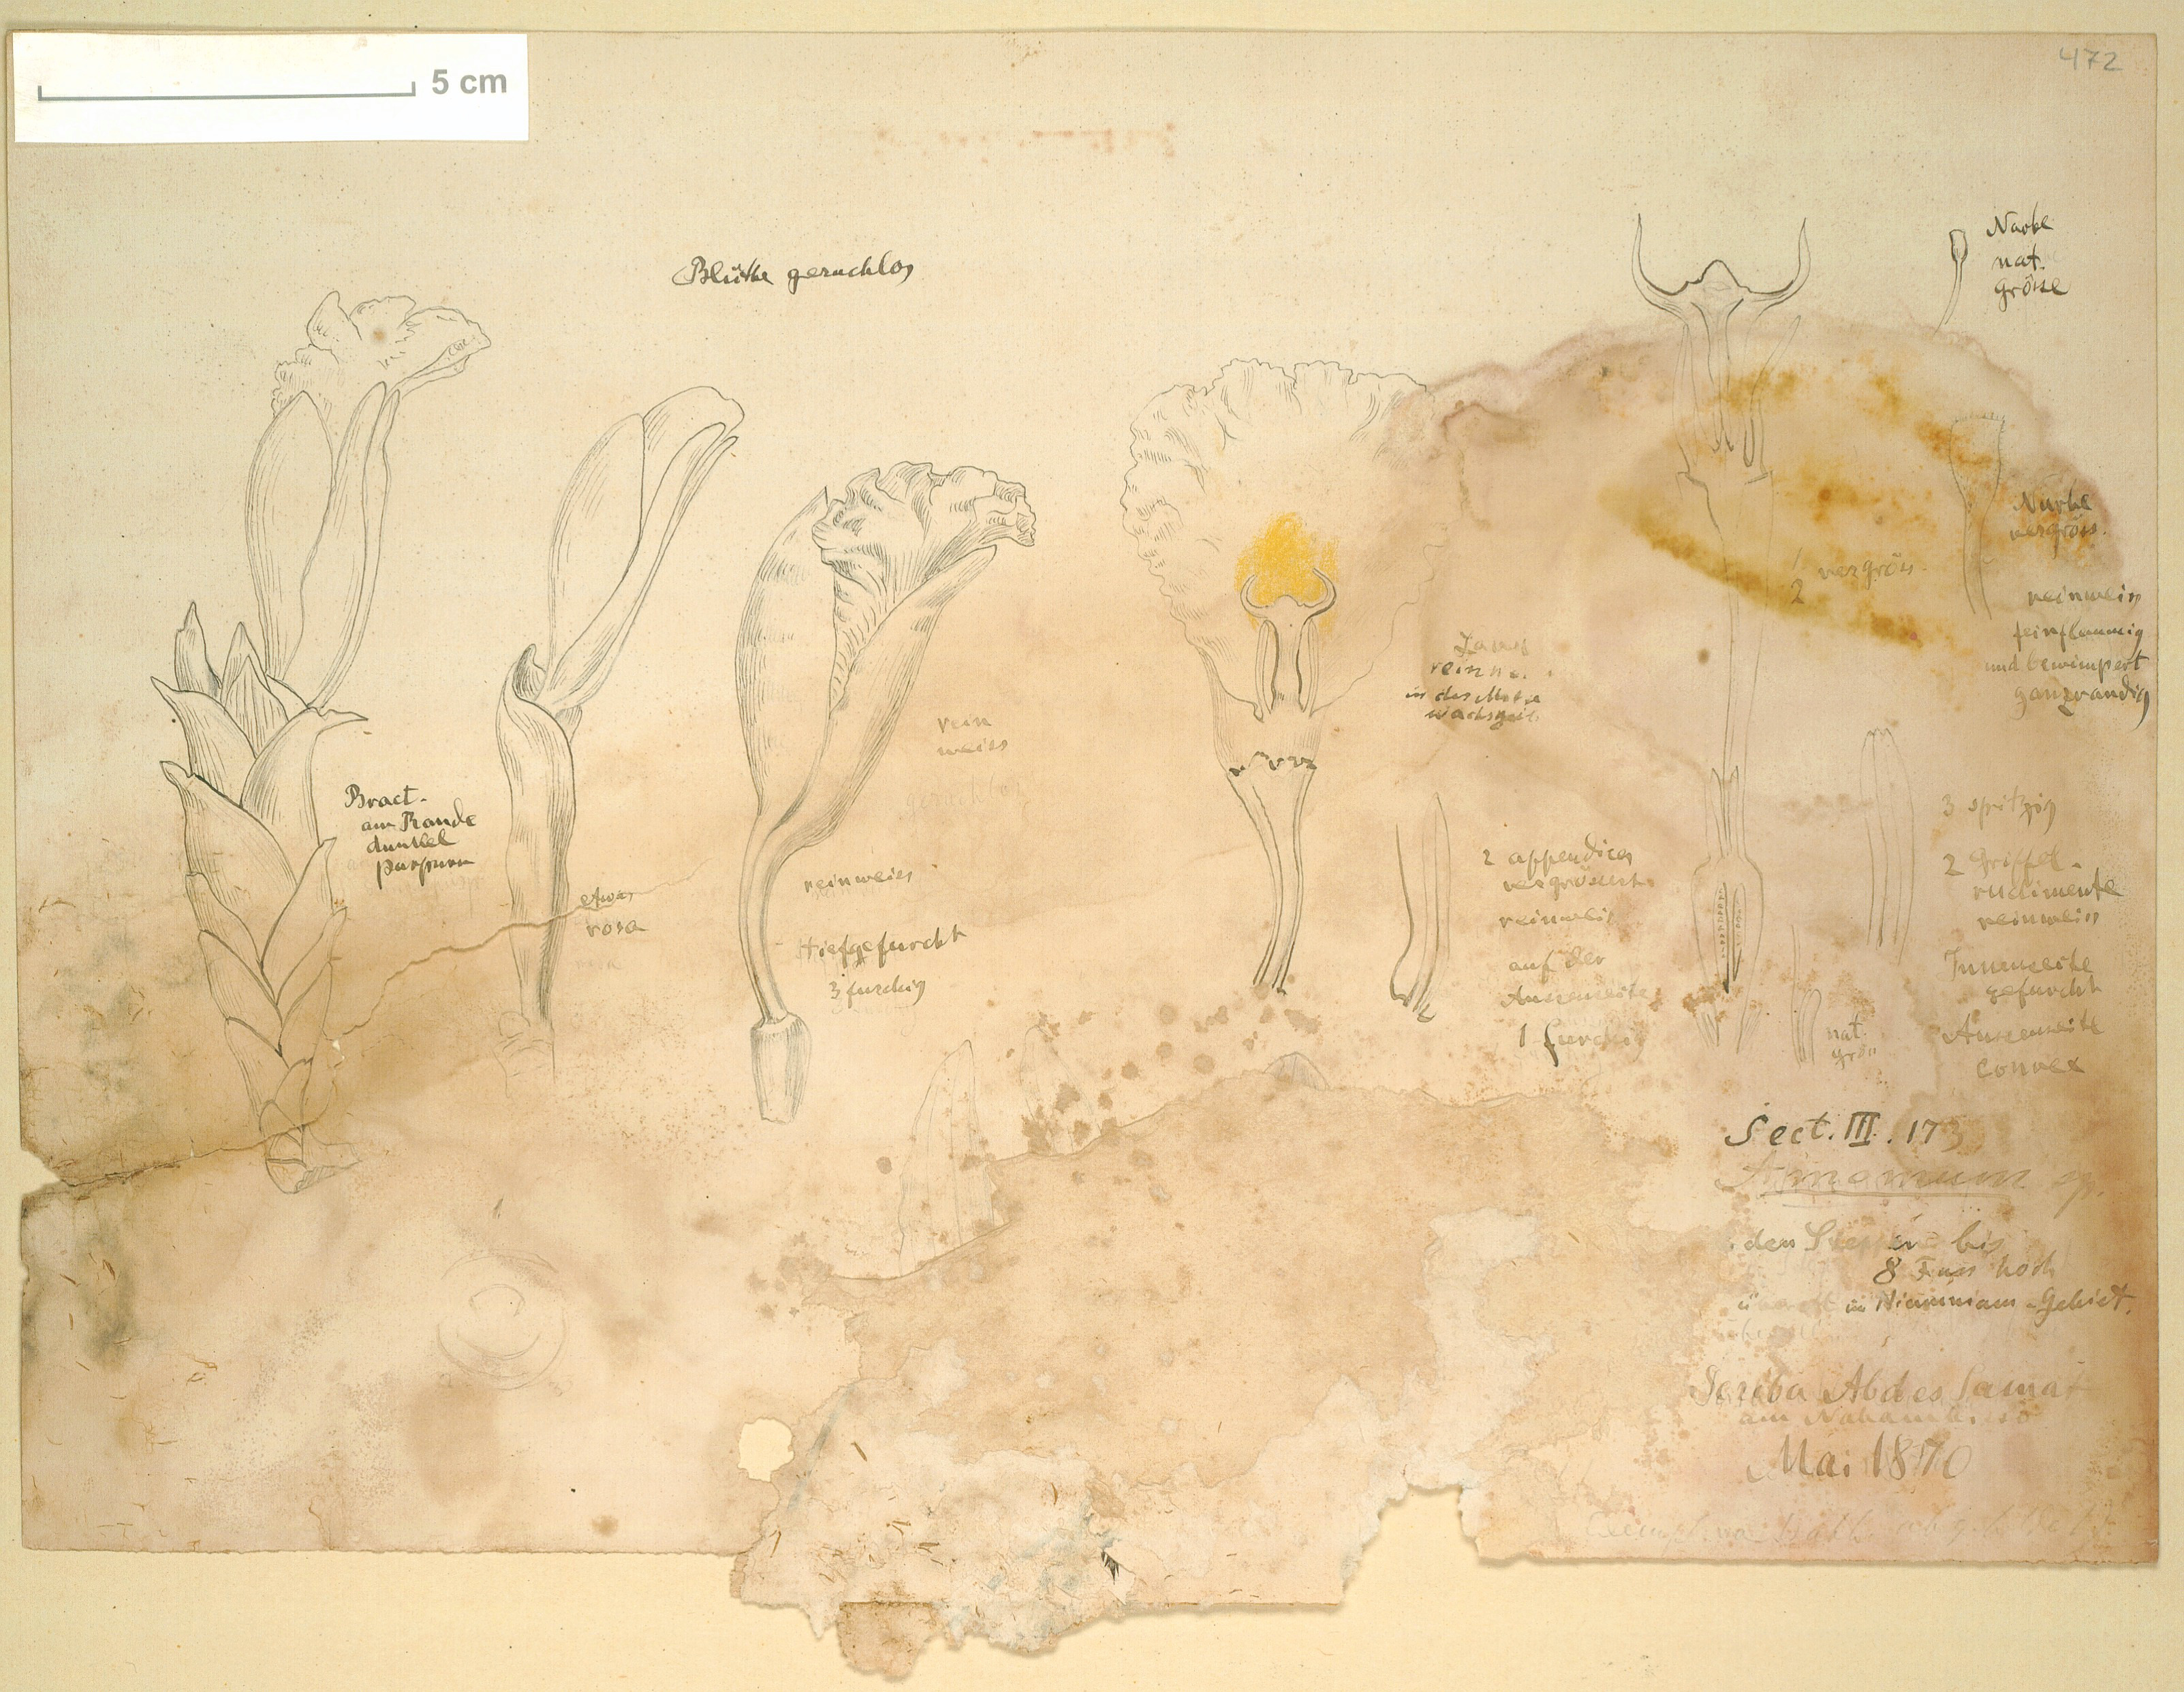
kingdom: Plantae
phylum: Tracheophyta
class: Liliopsida
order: Zingiberales
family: Zingiberaceae
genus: Amomum
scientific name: Amomum
